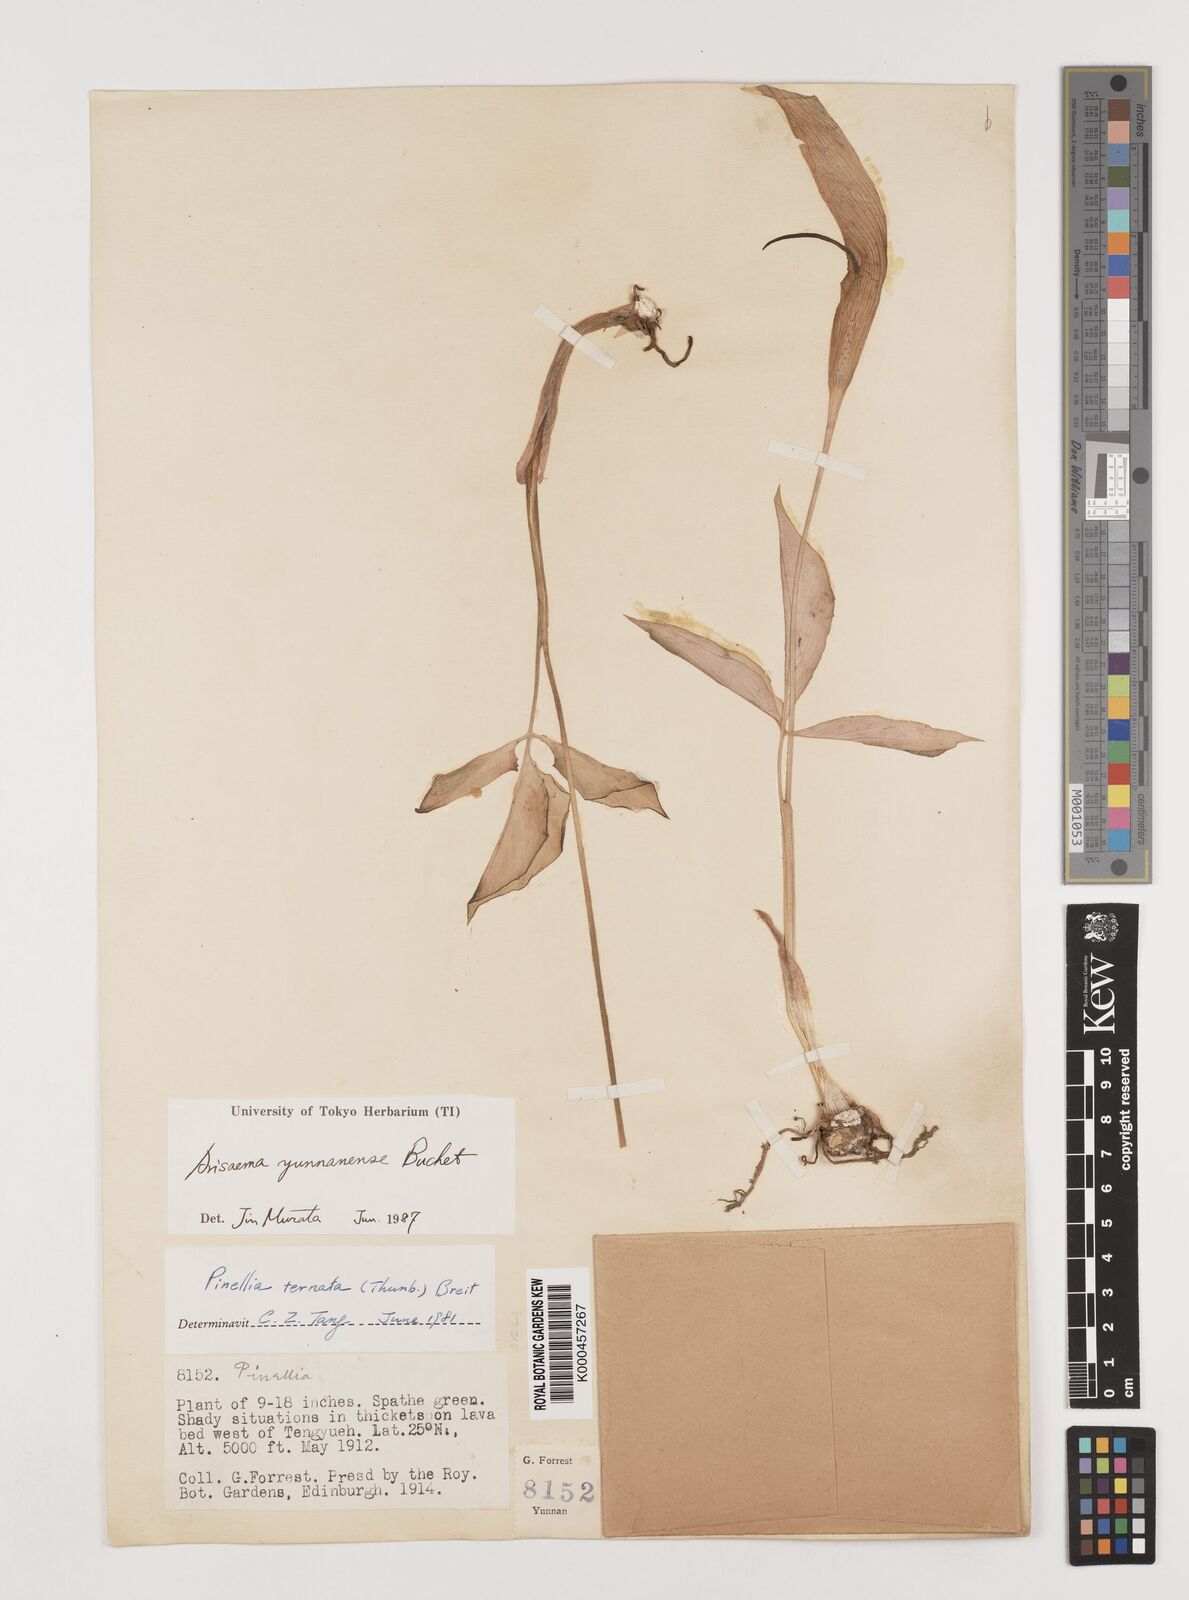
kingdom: Plantae
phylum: Tracheophyta
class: Liliopsida
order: Alismatales
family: Araceae
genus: Arisaema
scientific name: Arisaema yunnanense
